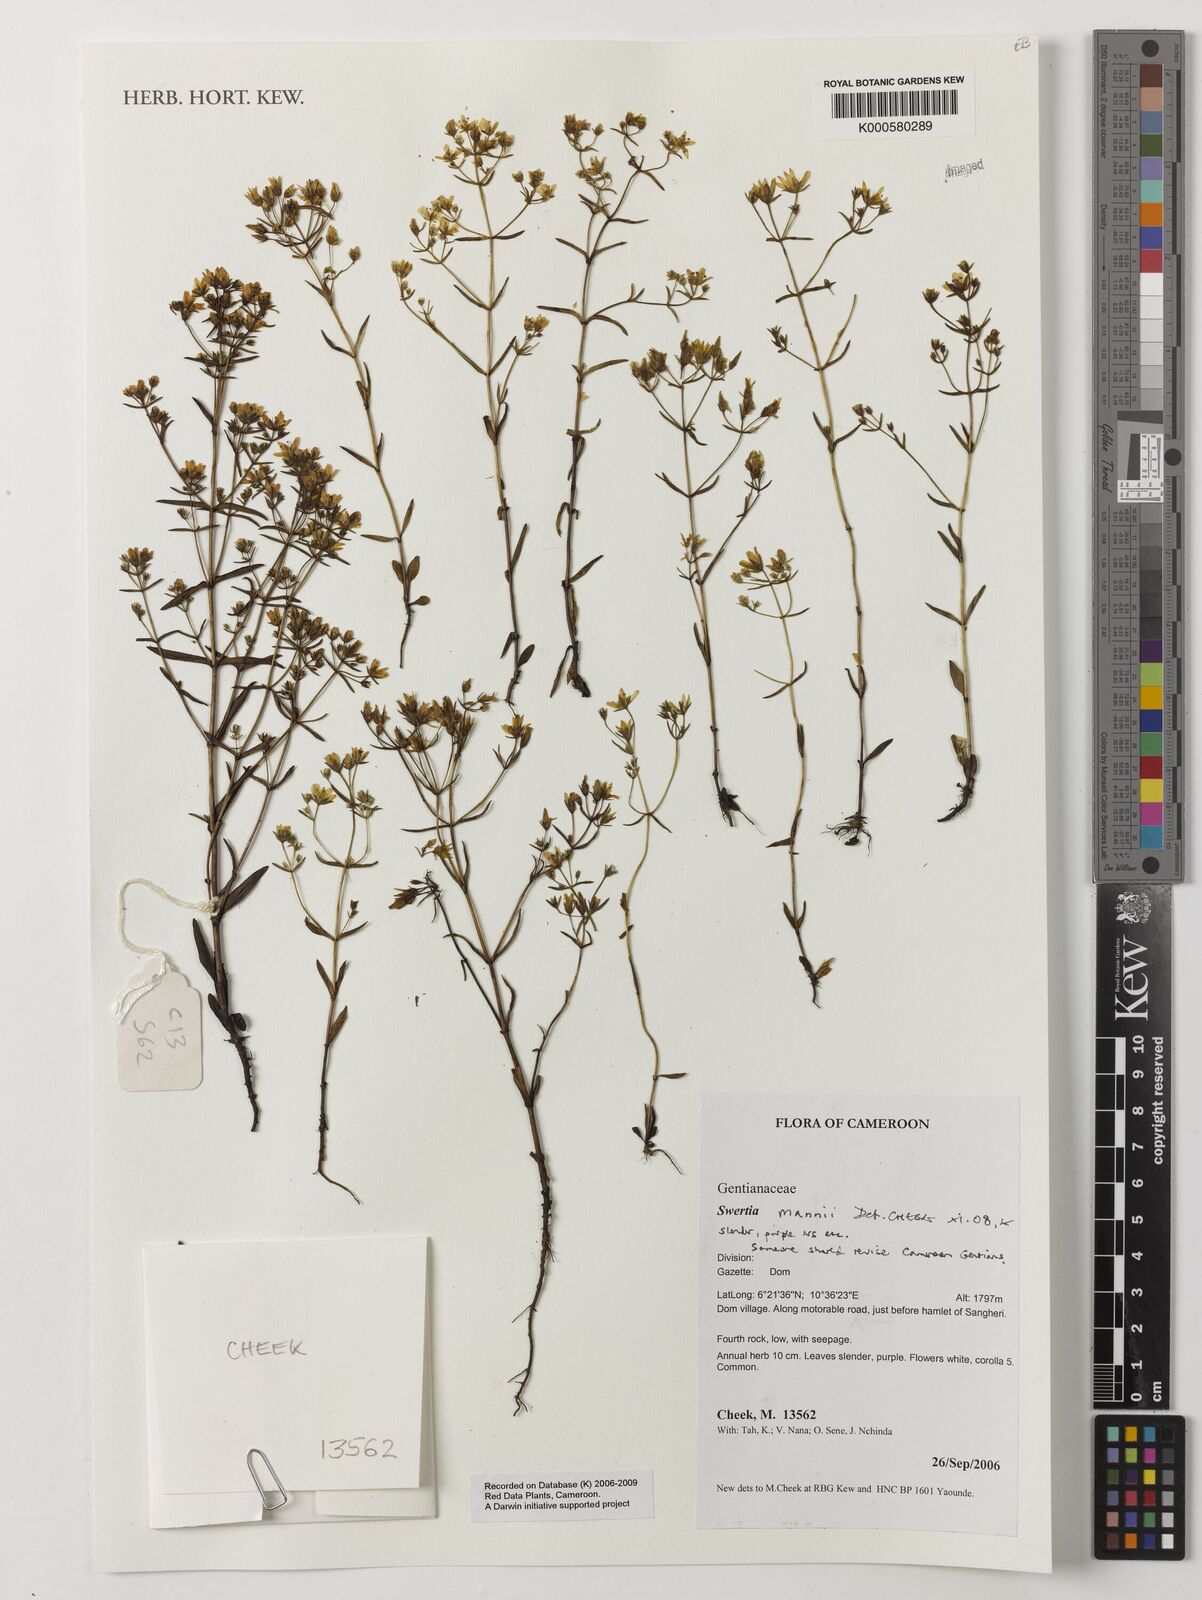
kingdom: Plantae
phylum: Tracheophyta
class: Magnoliopsida
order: Gentianales
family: Gentianaceae
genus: Swertia
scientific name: Swertia mannii
